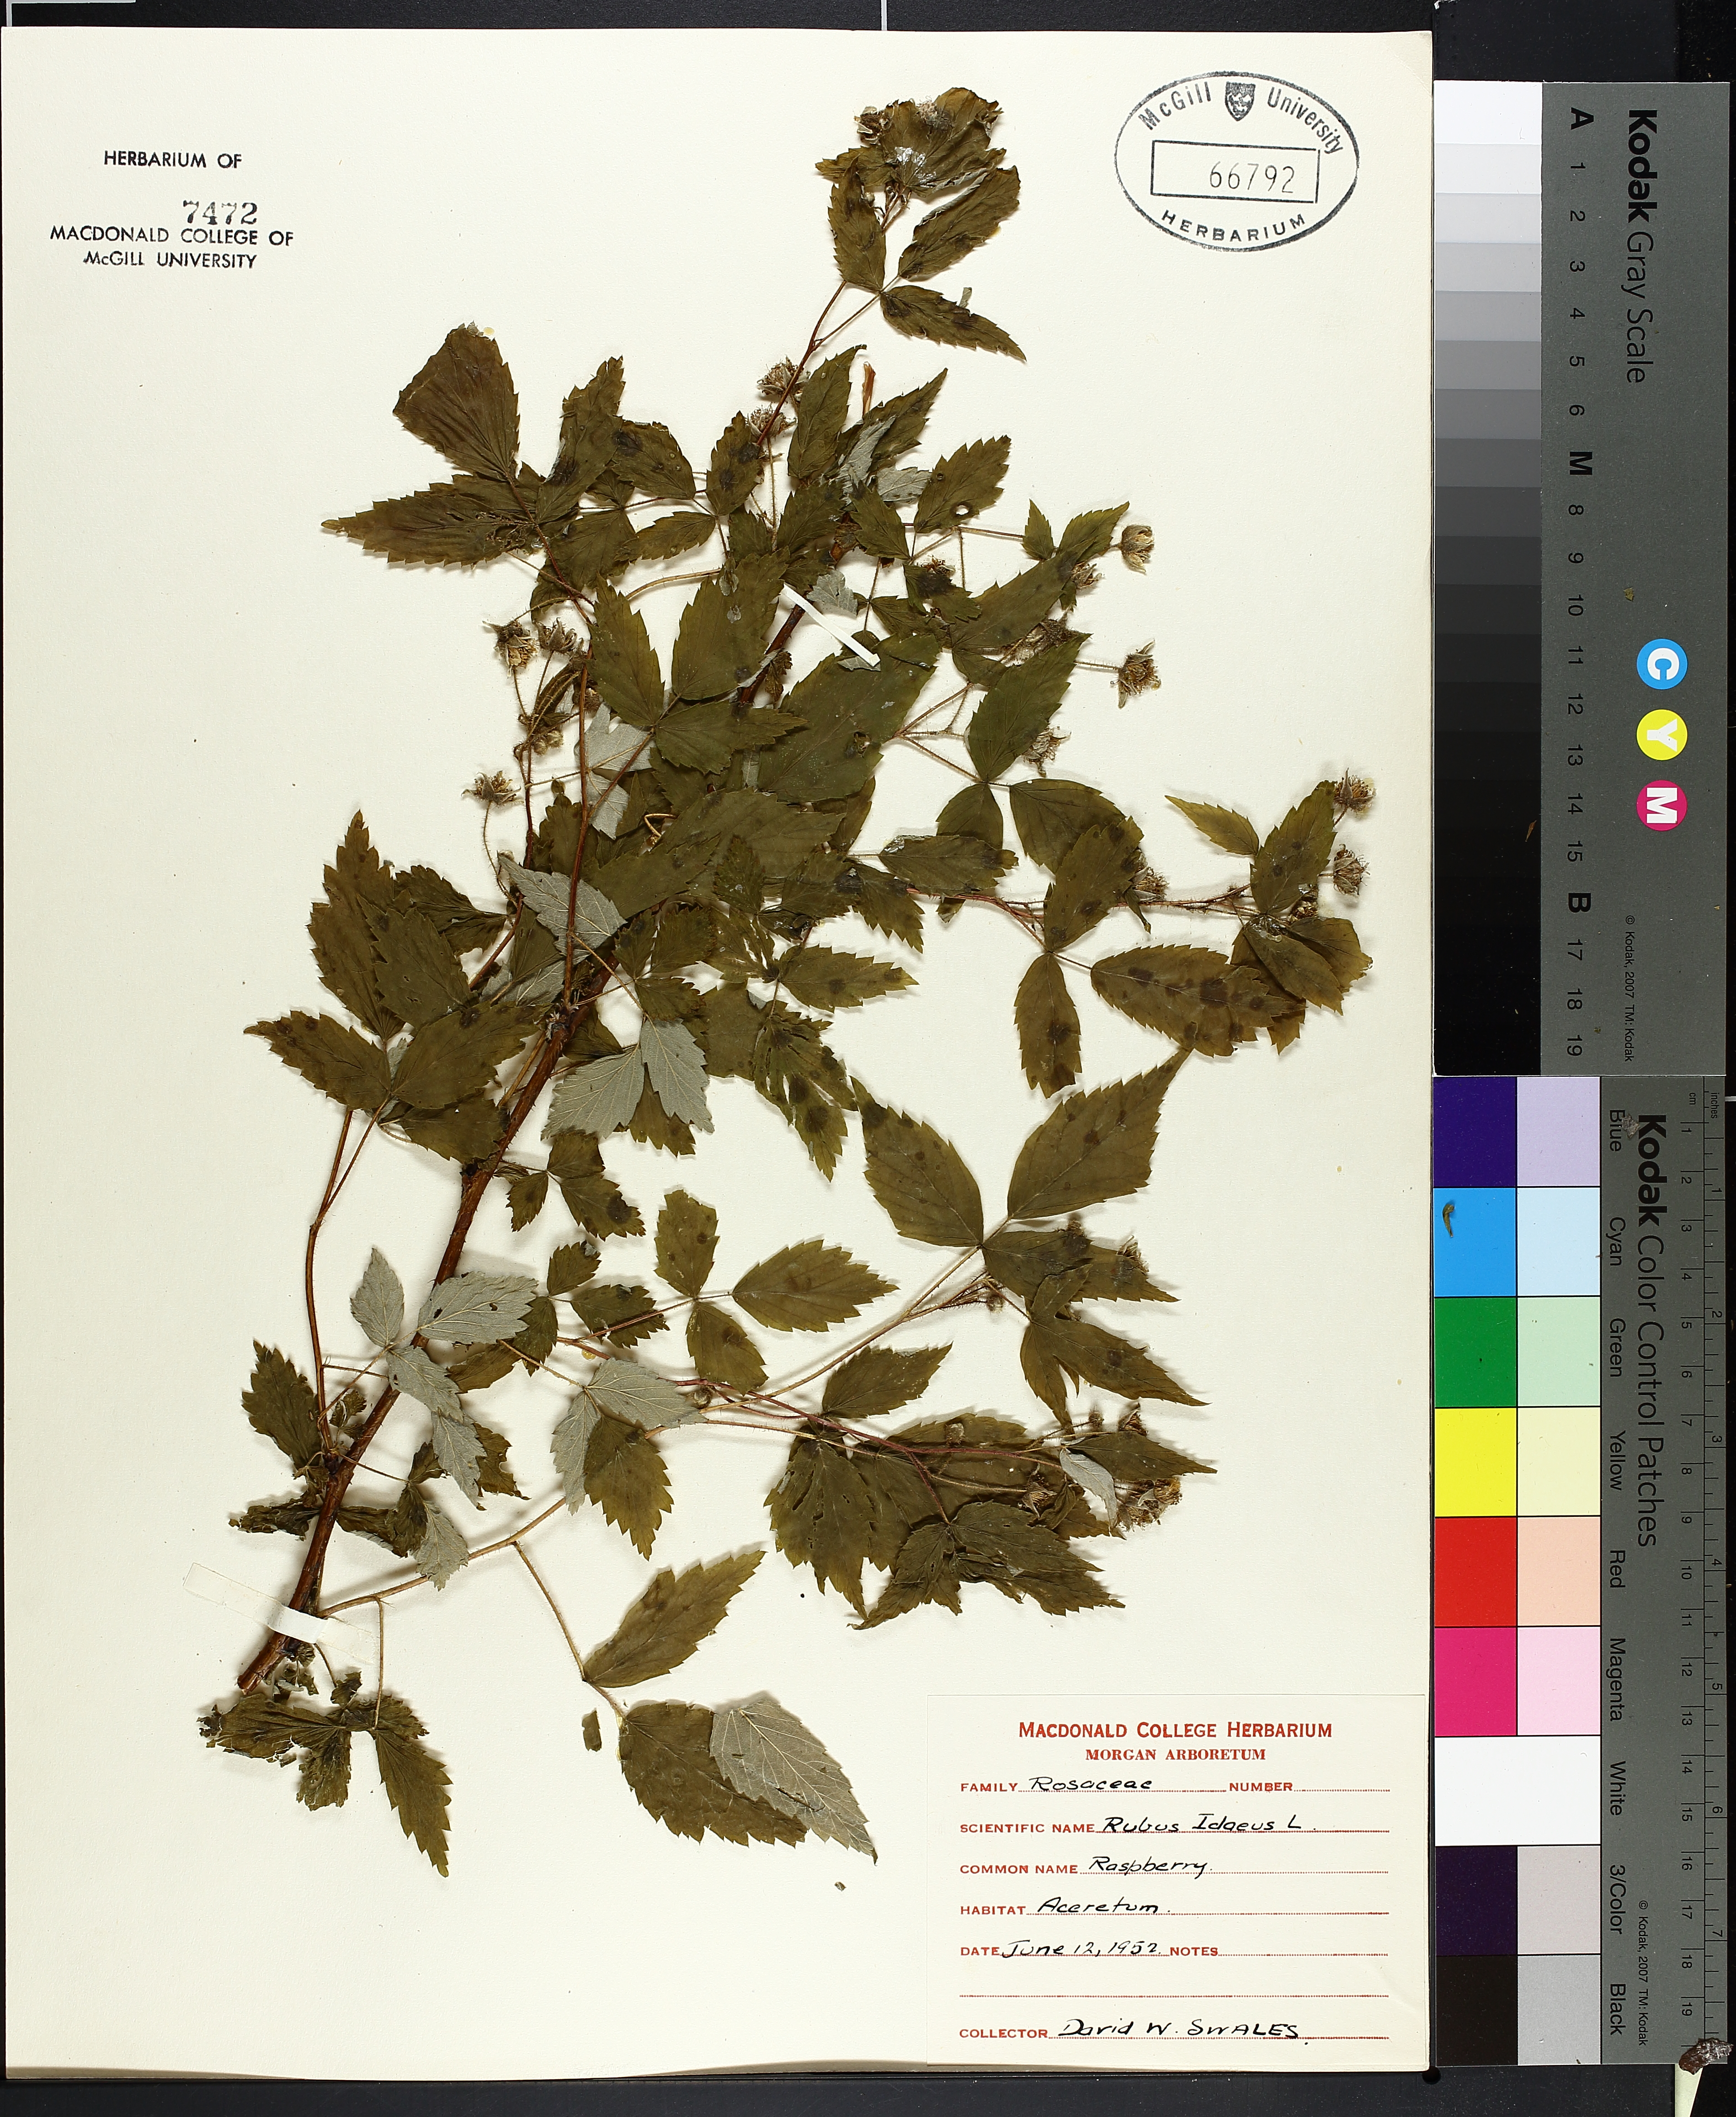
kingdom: Plantae
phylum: Tracheophyta
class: Magnoliopsida
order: Rosales
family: Rosaceae
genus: Rubus
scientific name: Rubus idaeus
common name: Raspberry
